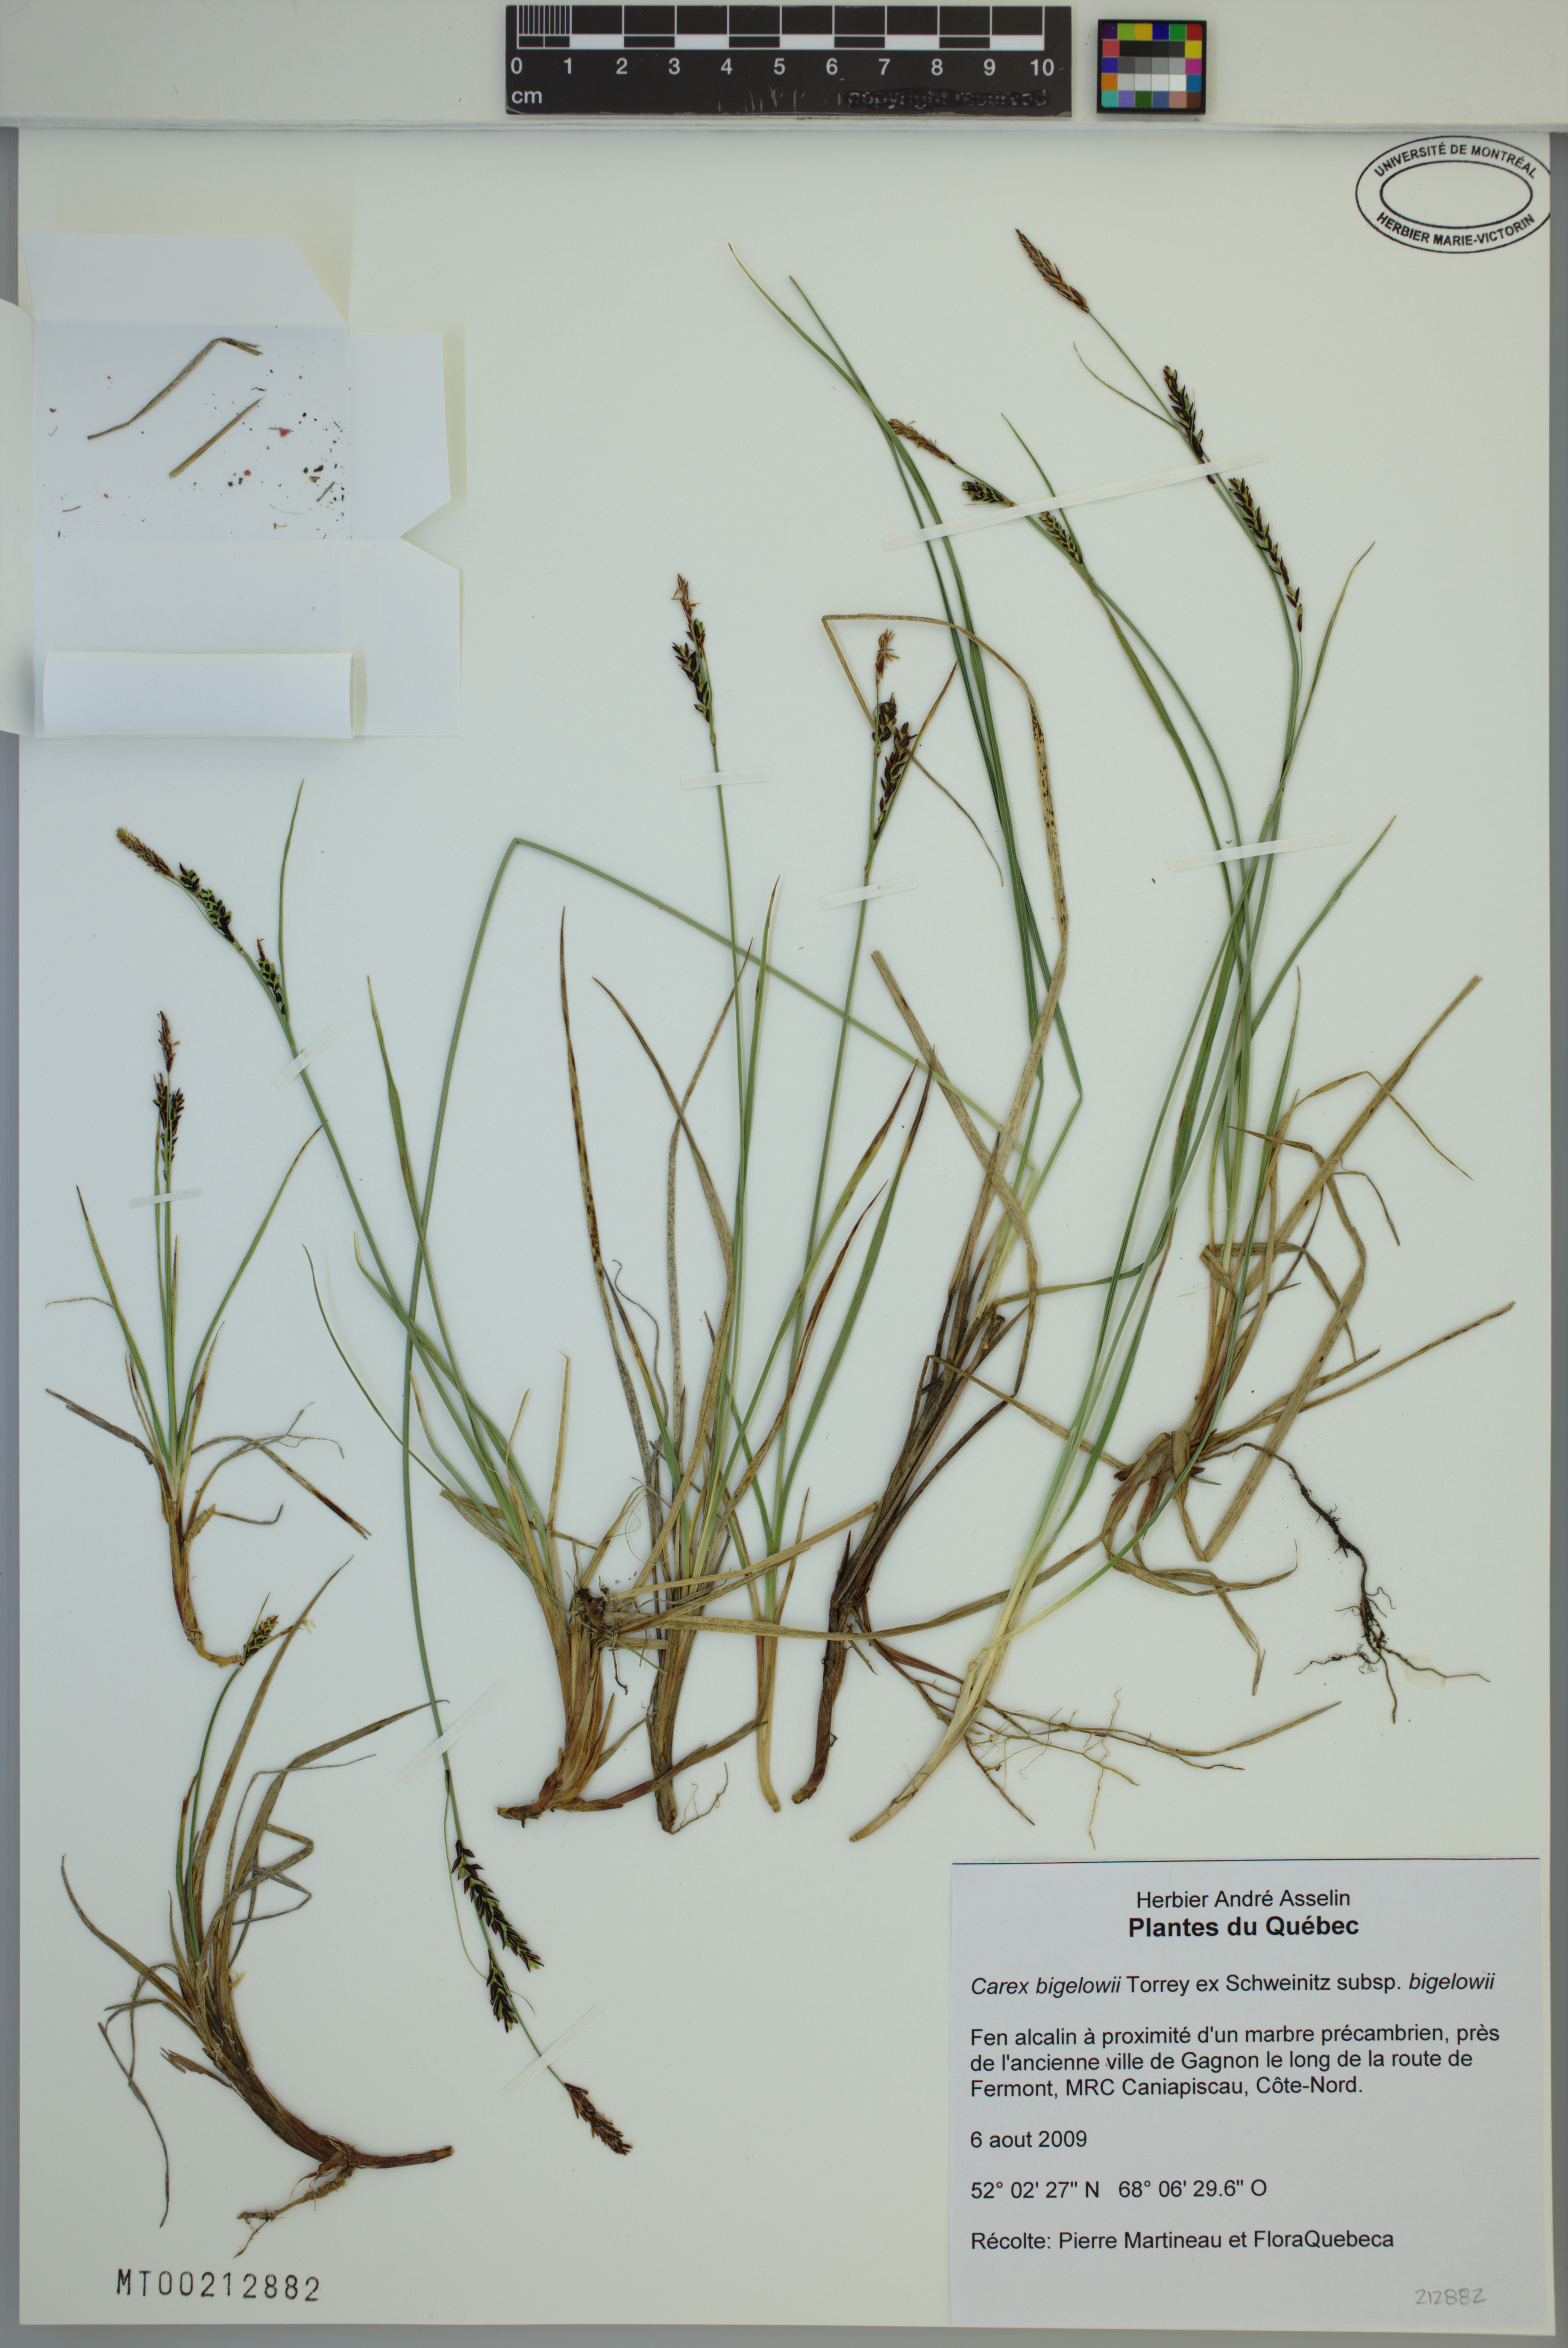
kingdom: Plantae
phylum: Tracheophyta
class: Liliopsida
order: Poales
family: Cyperaceae
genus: Carex
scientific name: Carex bigelowii
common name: Stiff sedge
